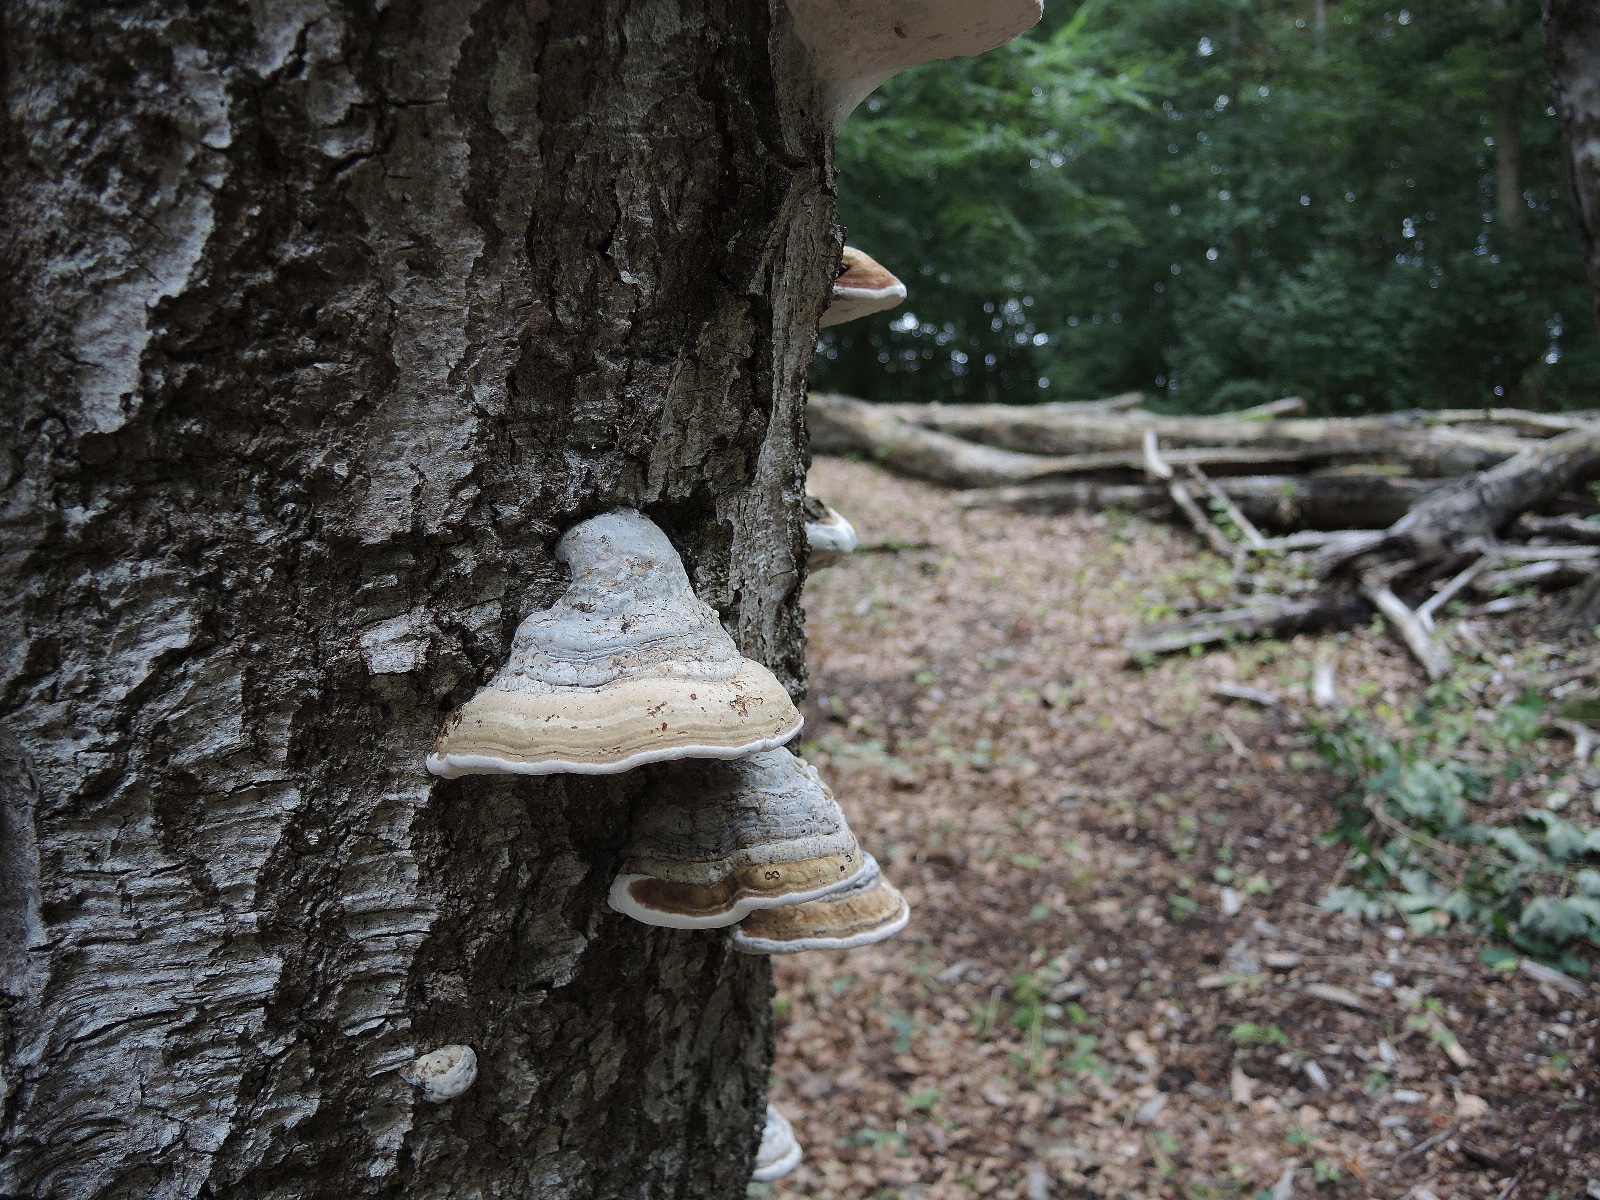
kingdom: Fungi
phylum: Basidiomycota
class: Agaricomycetes
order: Polyporales
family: Polyporaceae
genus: Fomes
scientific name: Fomes fomentarius
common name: tøndersvamp
